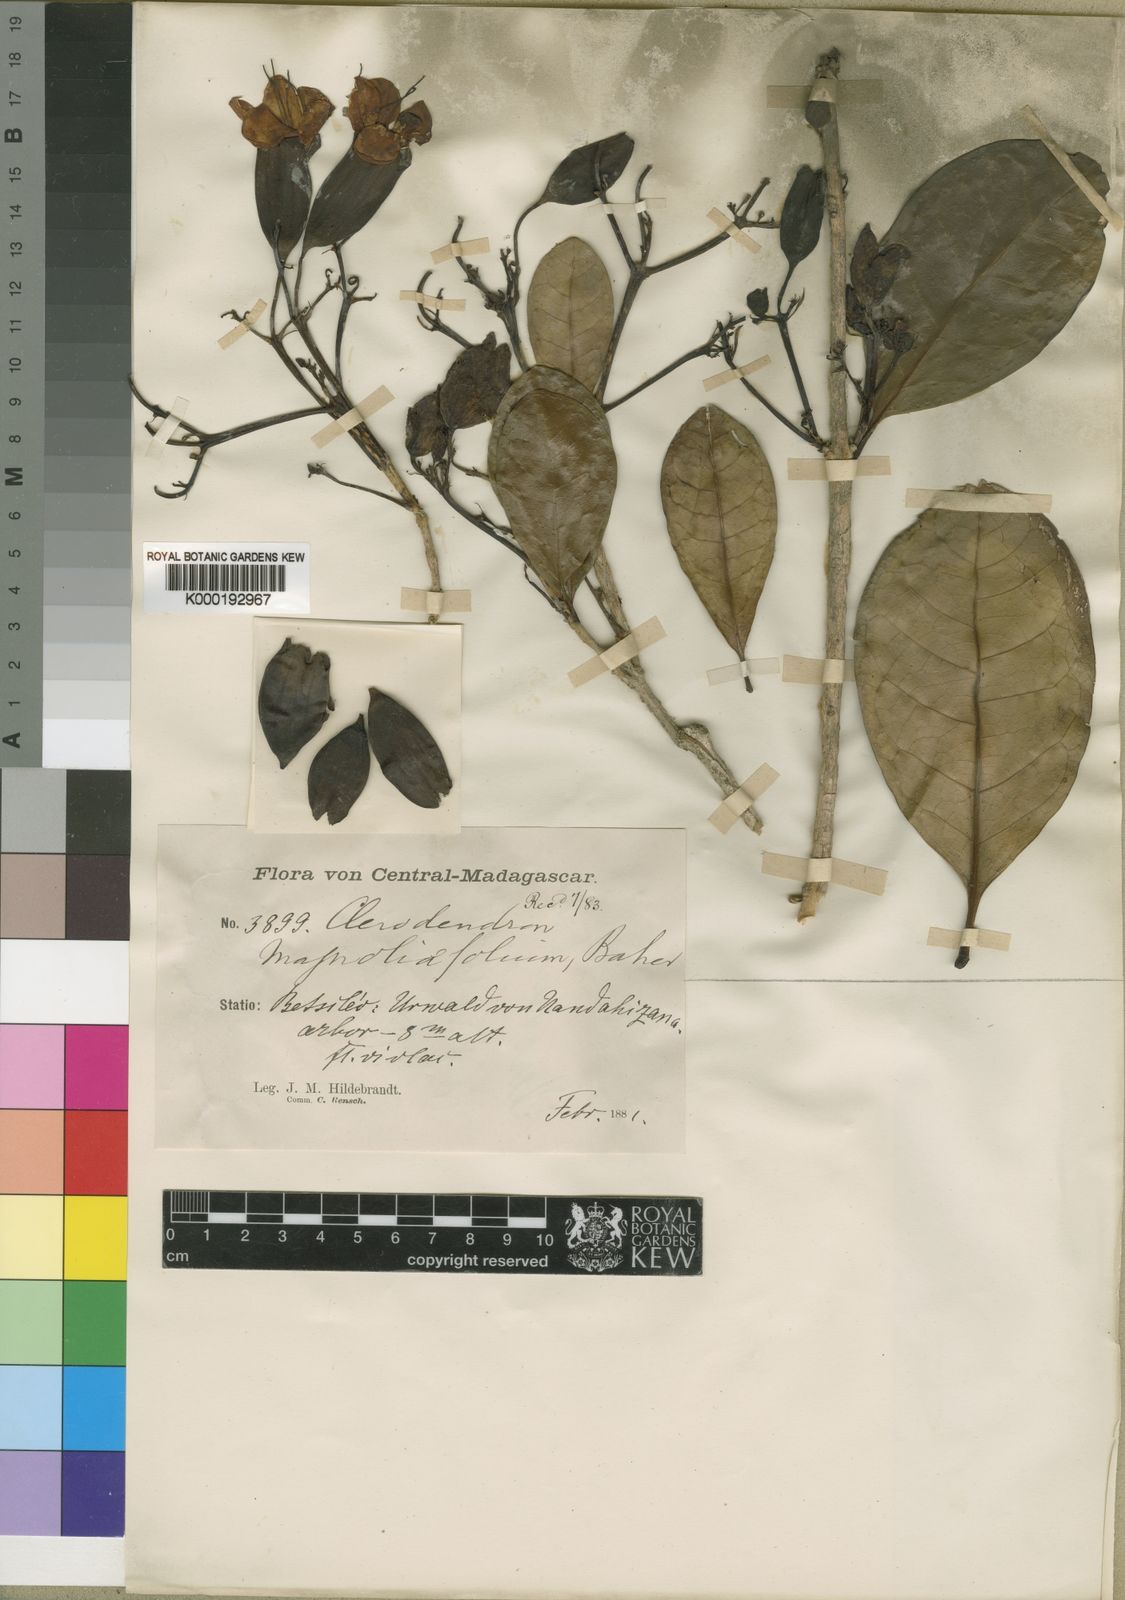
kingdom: Plantae
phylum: Tracheophyta
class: Magnoliopsida
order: Lamiales
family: Lamiaceae
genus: Clerodendrum
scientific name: Clerodendrum magnoliifolium
